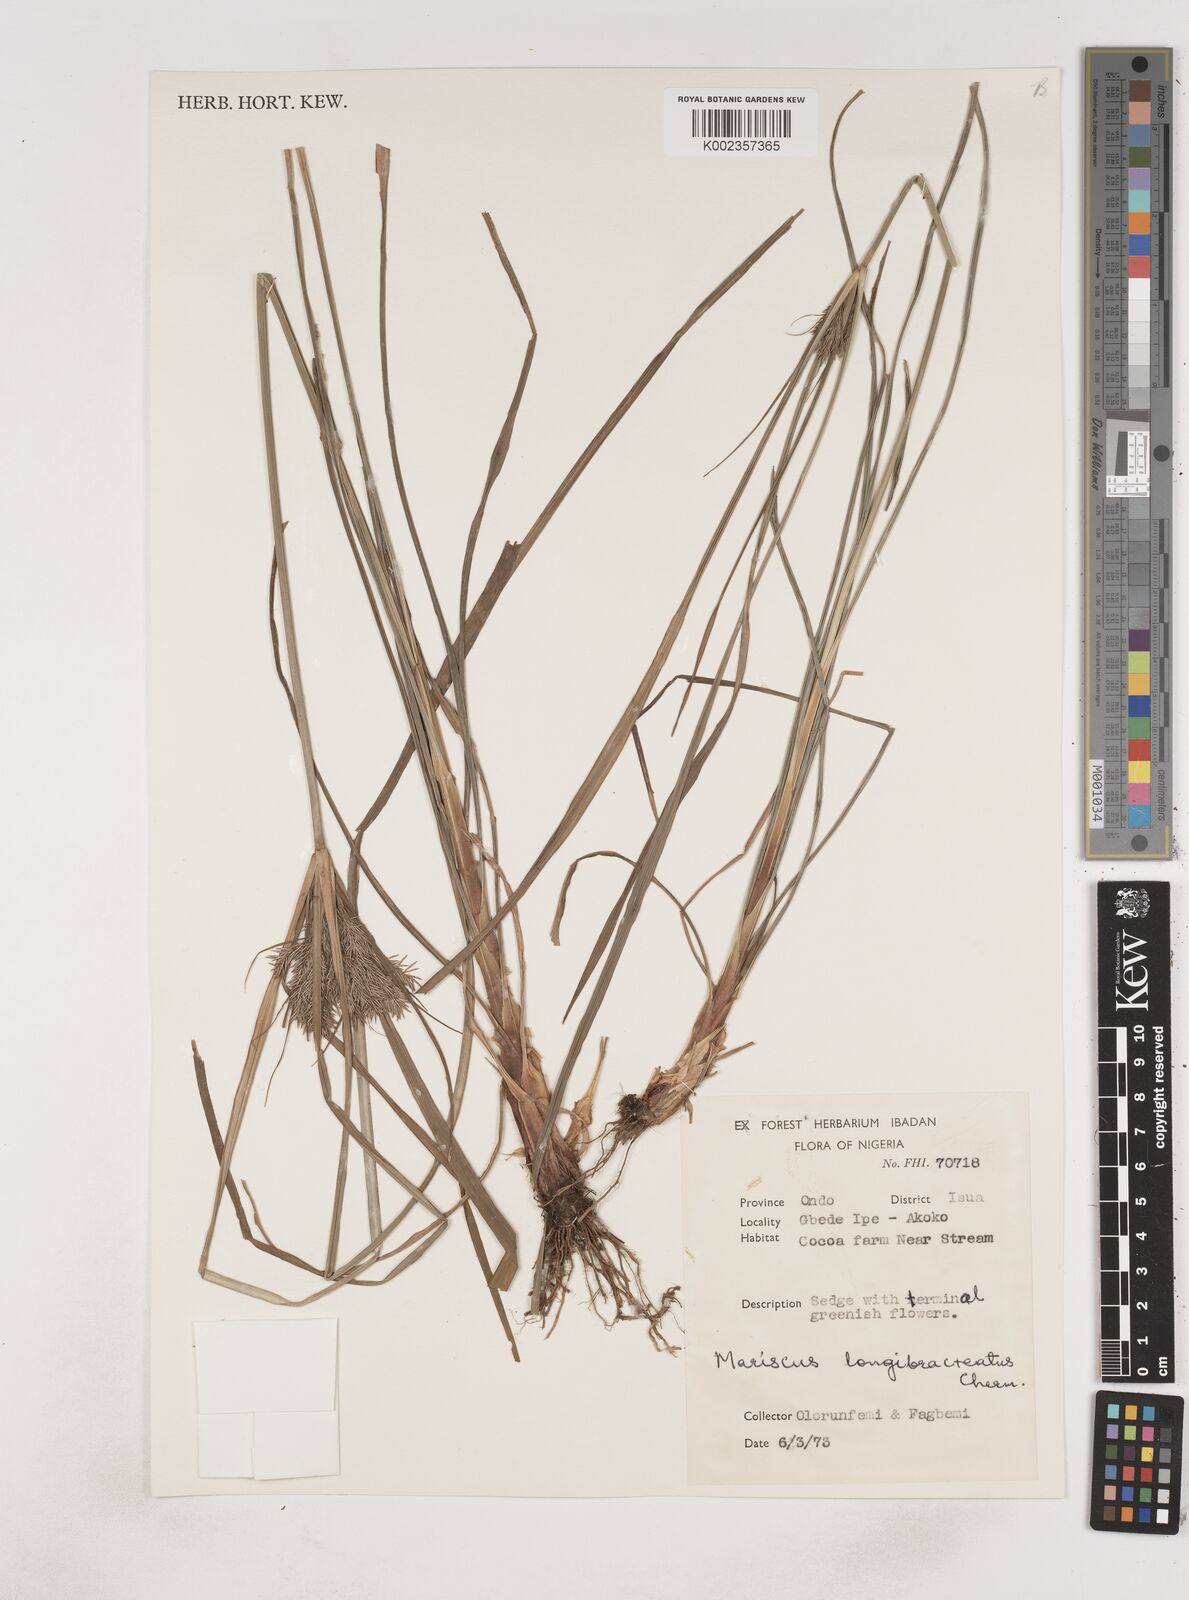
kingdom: Plantae
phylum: Tracheophyta
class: Liliopsida
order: Poales
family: Cyperaceae
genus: Cyperus
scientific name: Cyperus distans
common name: Slender cyperus
